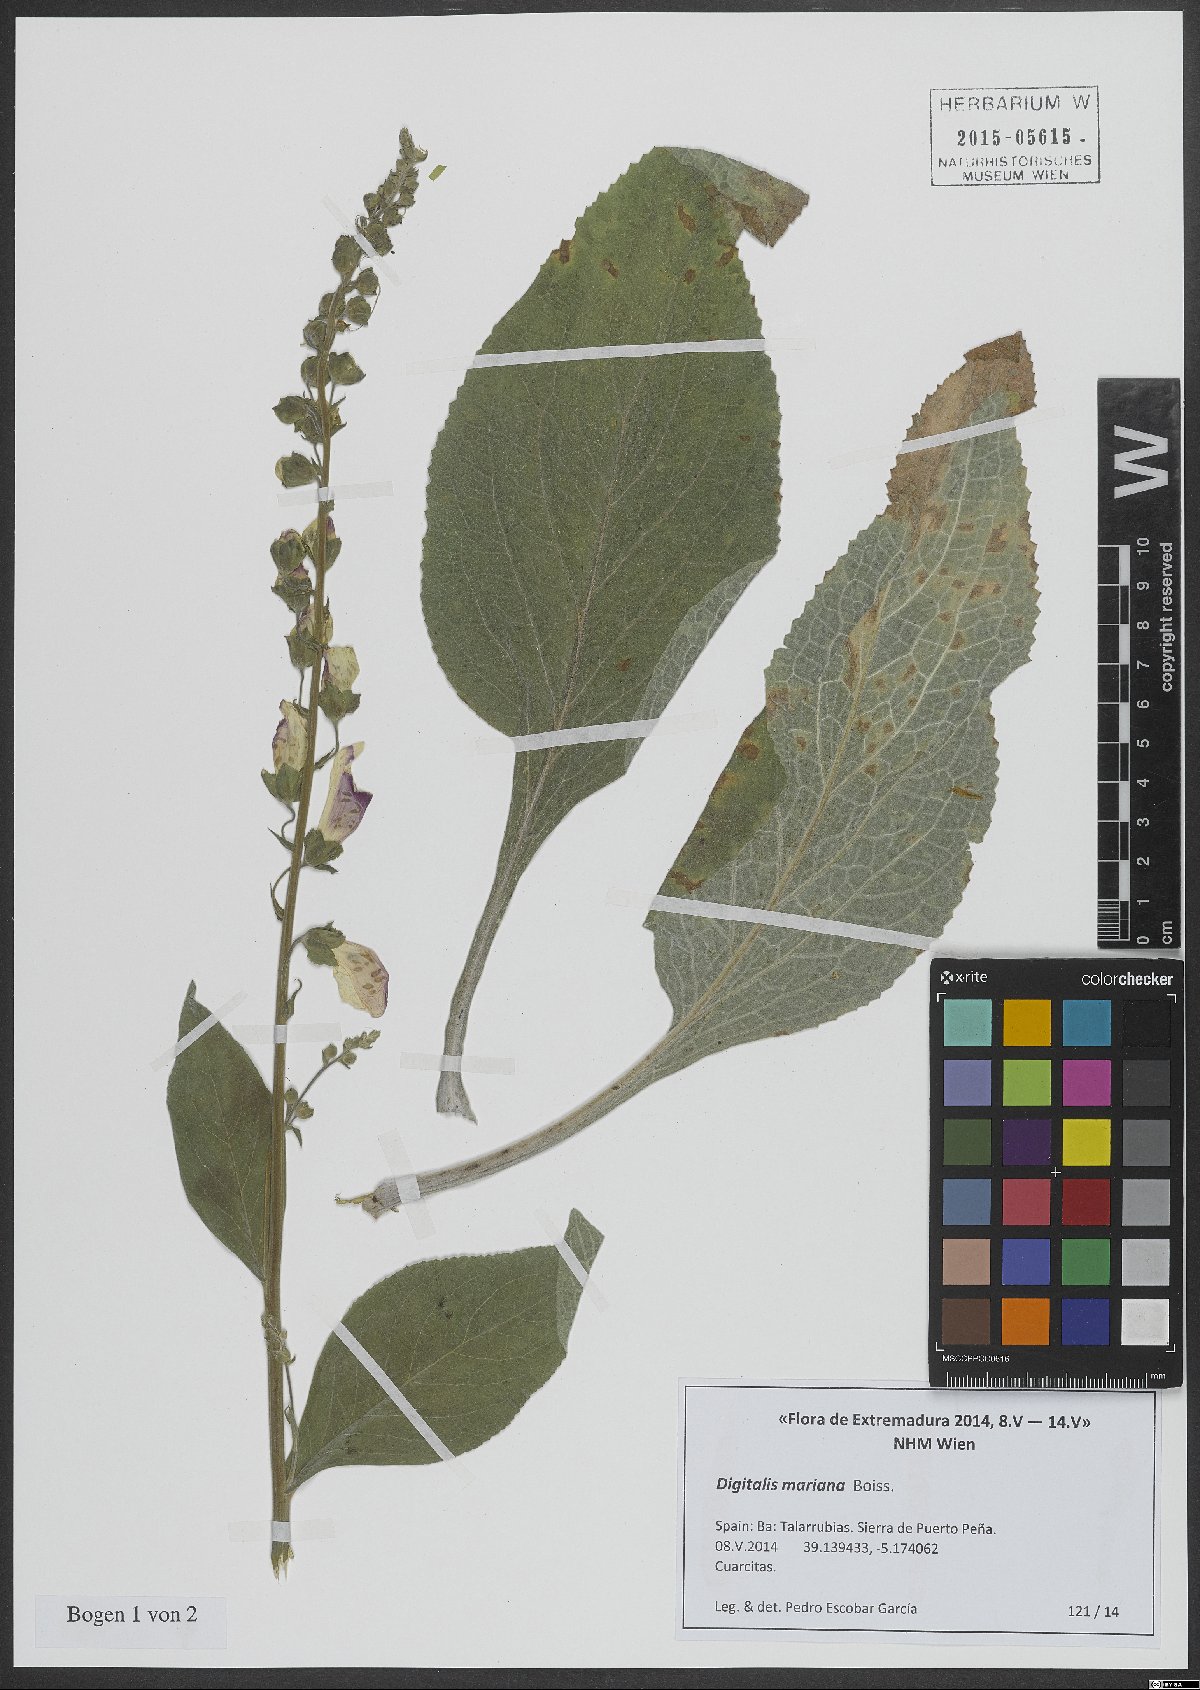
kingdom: Plantae
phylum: Tracheophyta
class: Magnoliopsida
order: Lamiales
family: Plantaginaceae
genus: Digitalis
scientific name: Digitalis mariana
